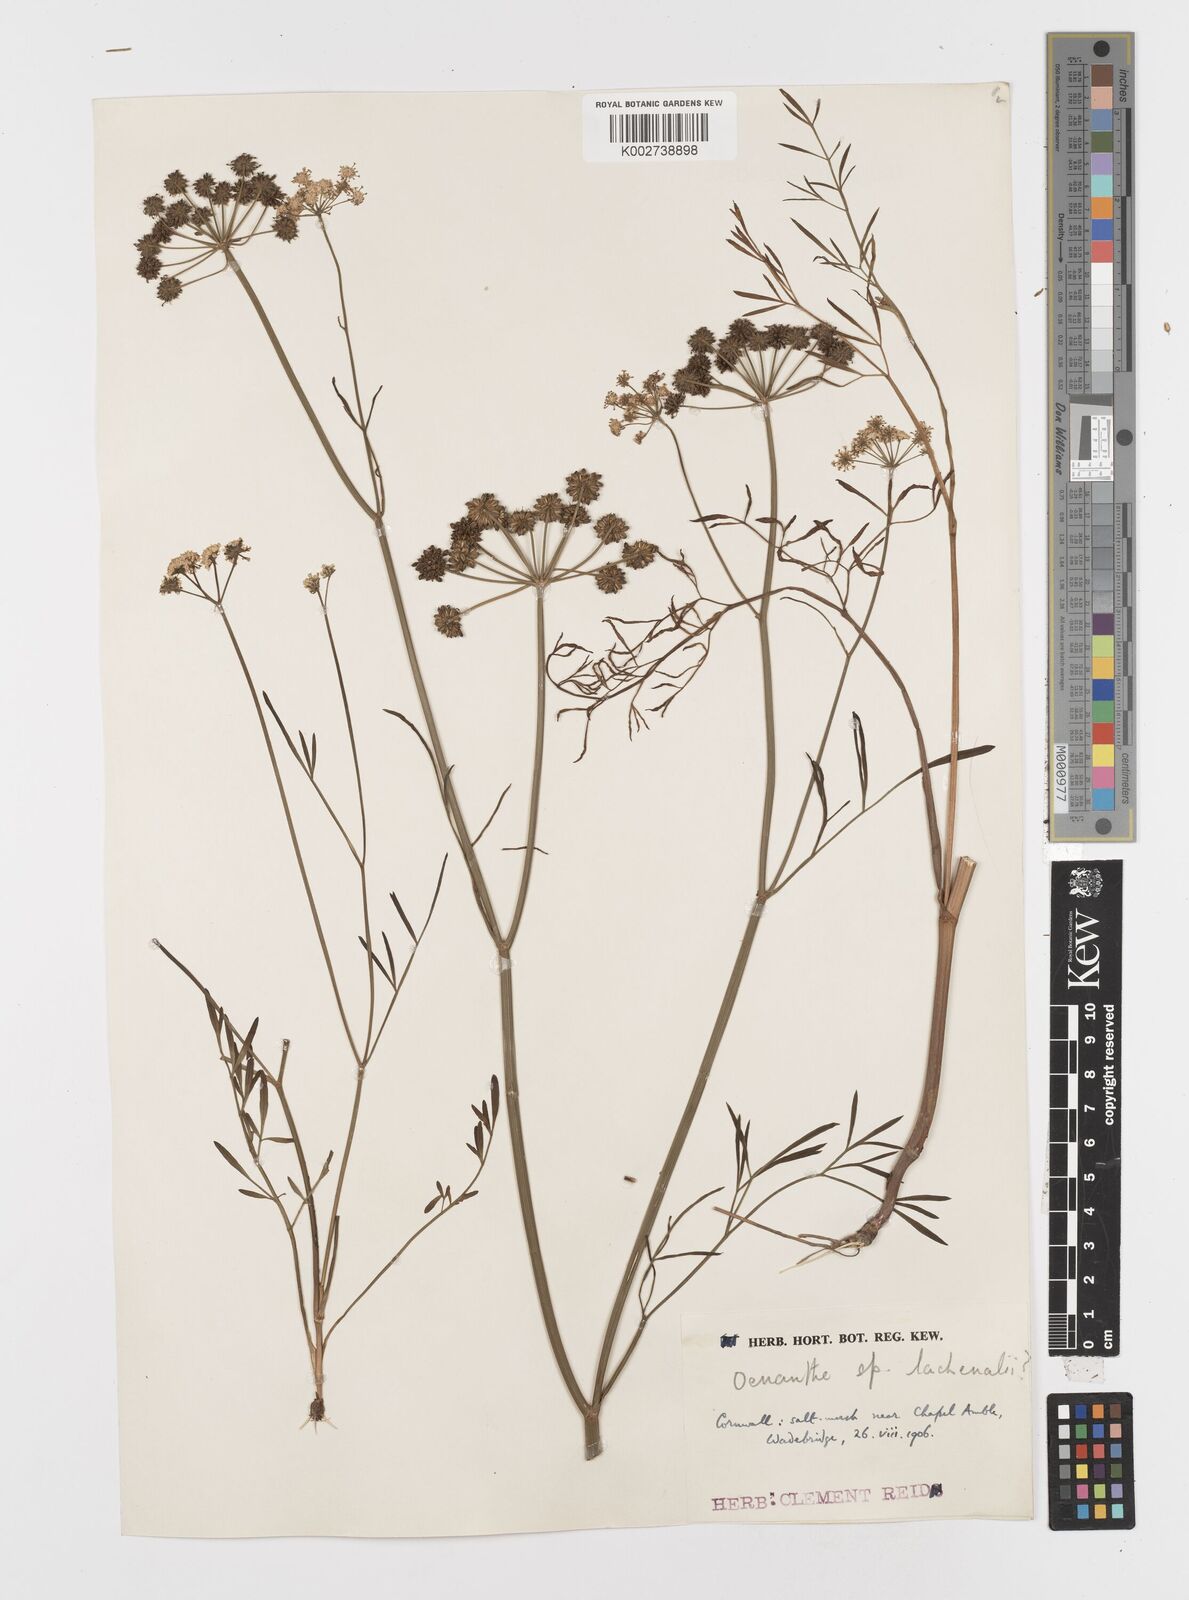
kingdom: Plantae
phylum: Tracheophyta
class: Magnoliopsida
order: Apiales
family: Apiaceae
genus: Oenanthe
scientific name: Oenanthe lachenalii
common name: Parsley water-dropwort
